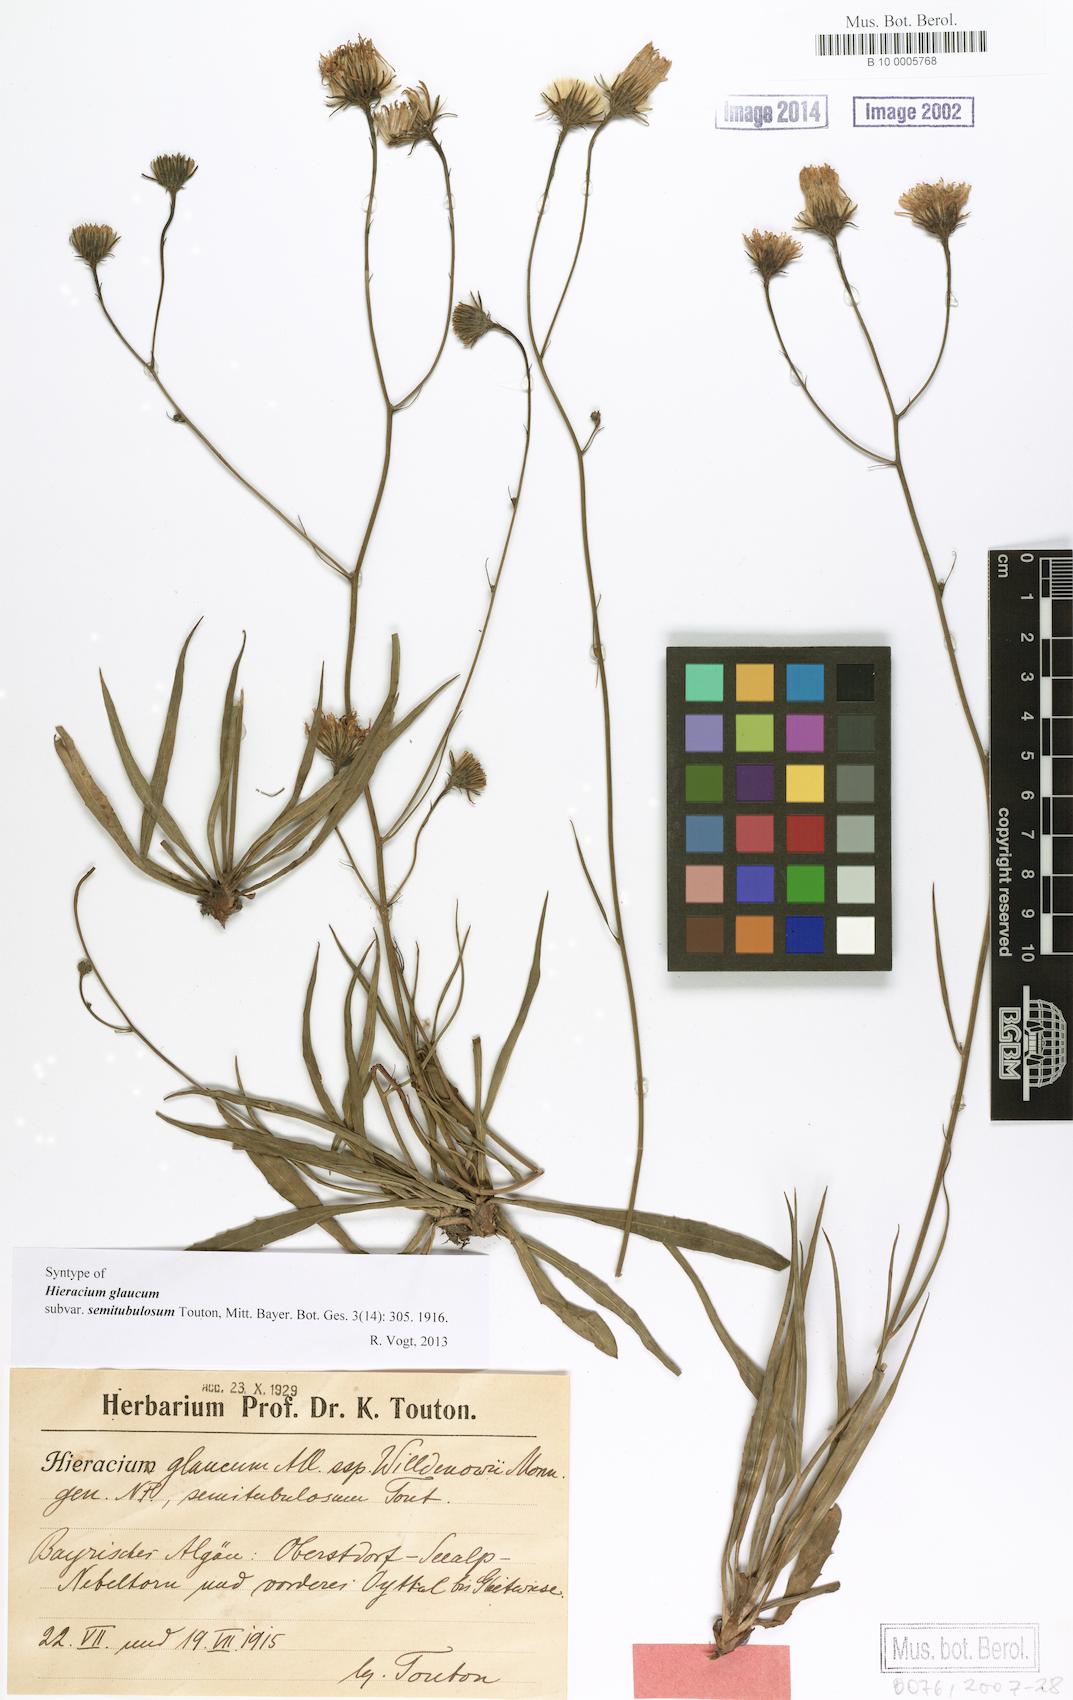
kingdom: Plantae
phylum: Tracheophyta
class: Magnoliopsida
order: Asterales
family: Asteraceae
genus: Hieracium
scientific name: Hieracium glaucum
